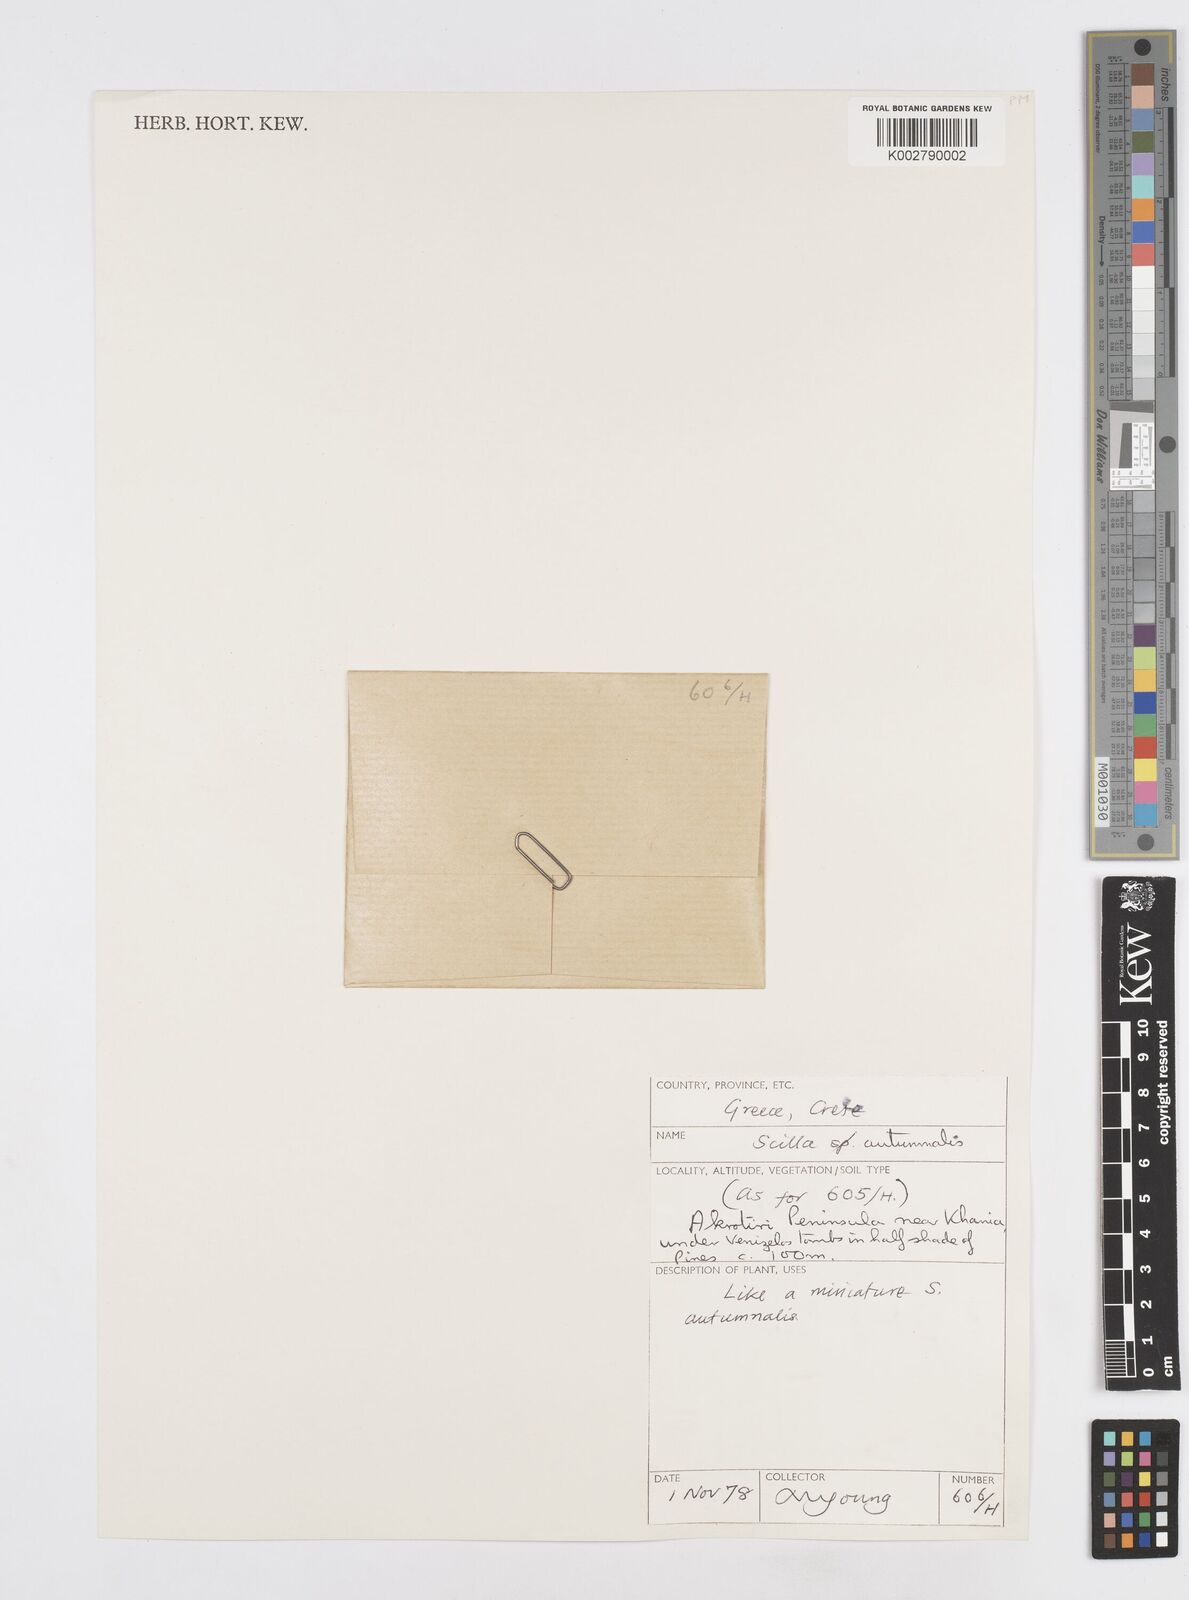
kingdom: Plantae
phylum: Tracheophyta
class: Liliopsida
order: Asparagales
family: Asparagaceae
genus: Prospero
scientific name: Prospero autumnale
